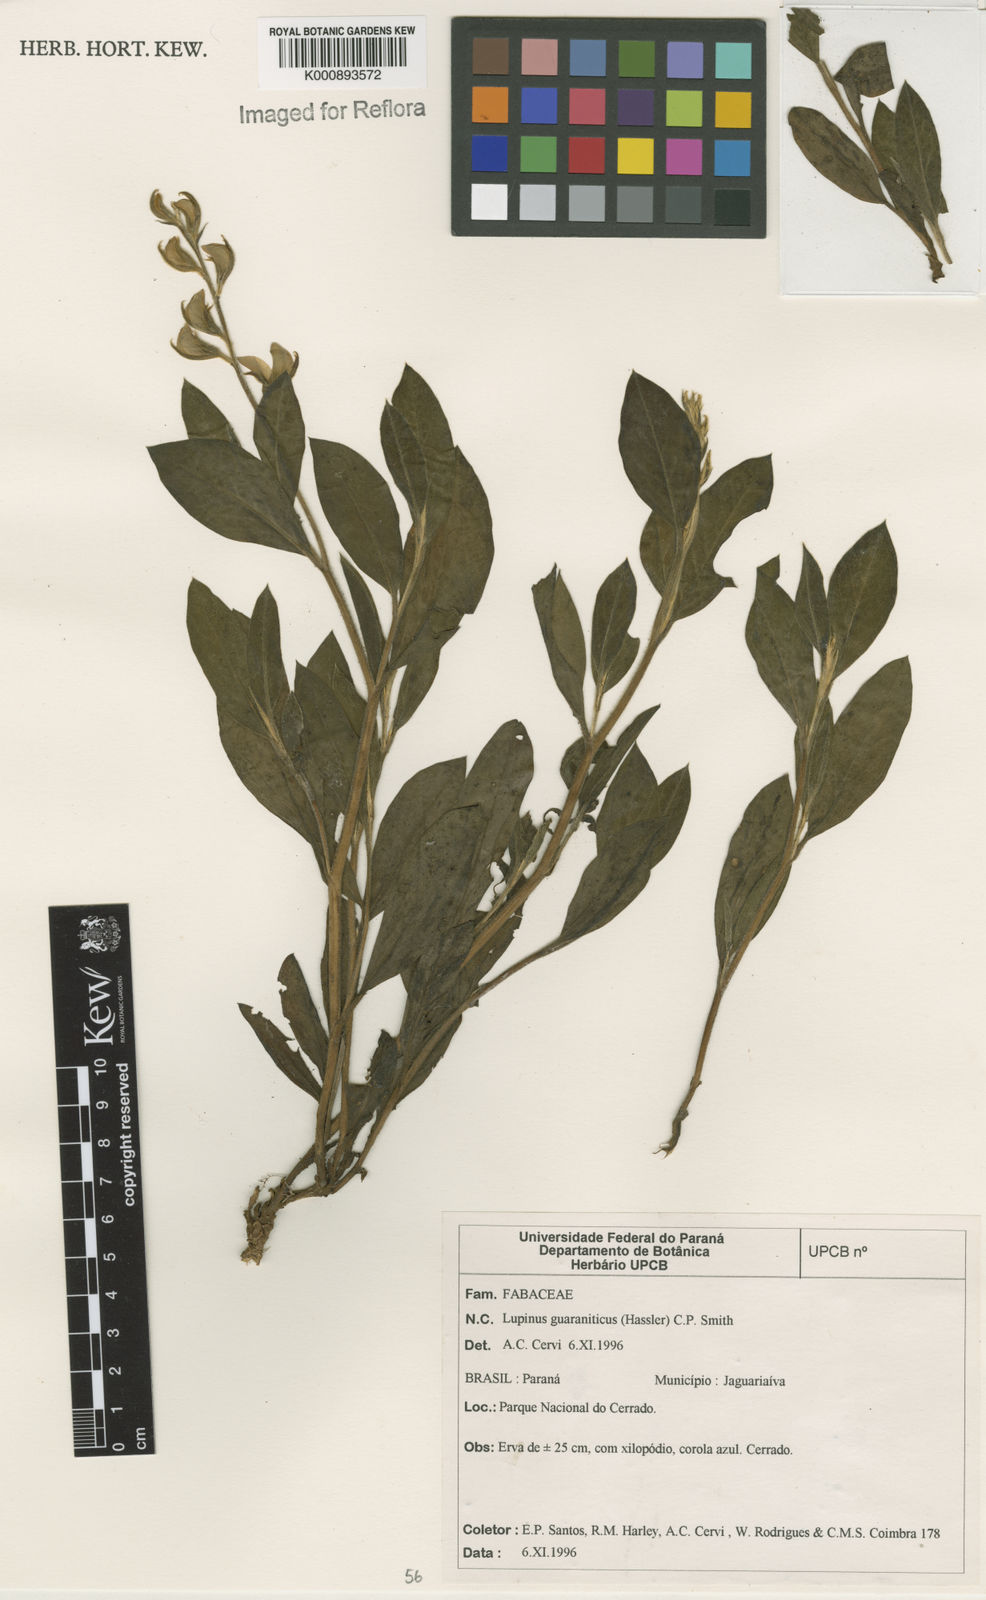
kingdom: Plantae
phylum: Tracheophyta
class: Magnoliopsida
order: Fabales
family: Fabaceae
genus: Lupinus
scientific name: Lupinus guaraniticus
